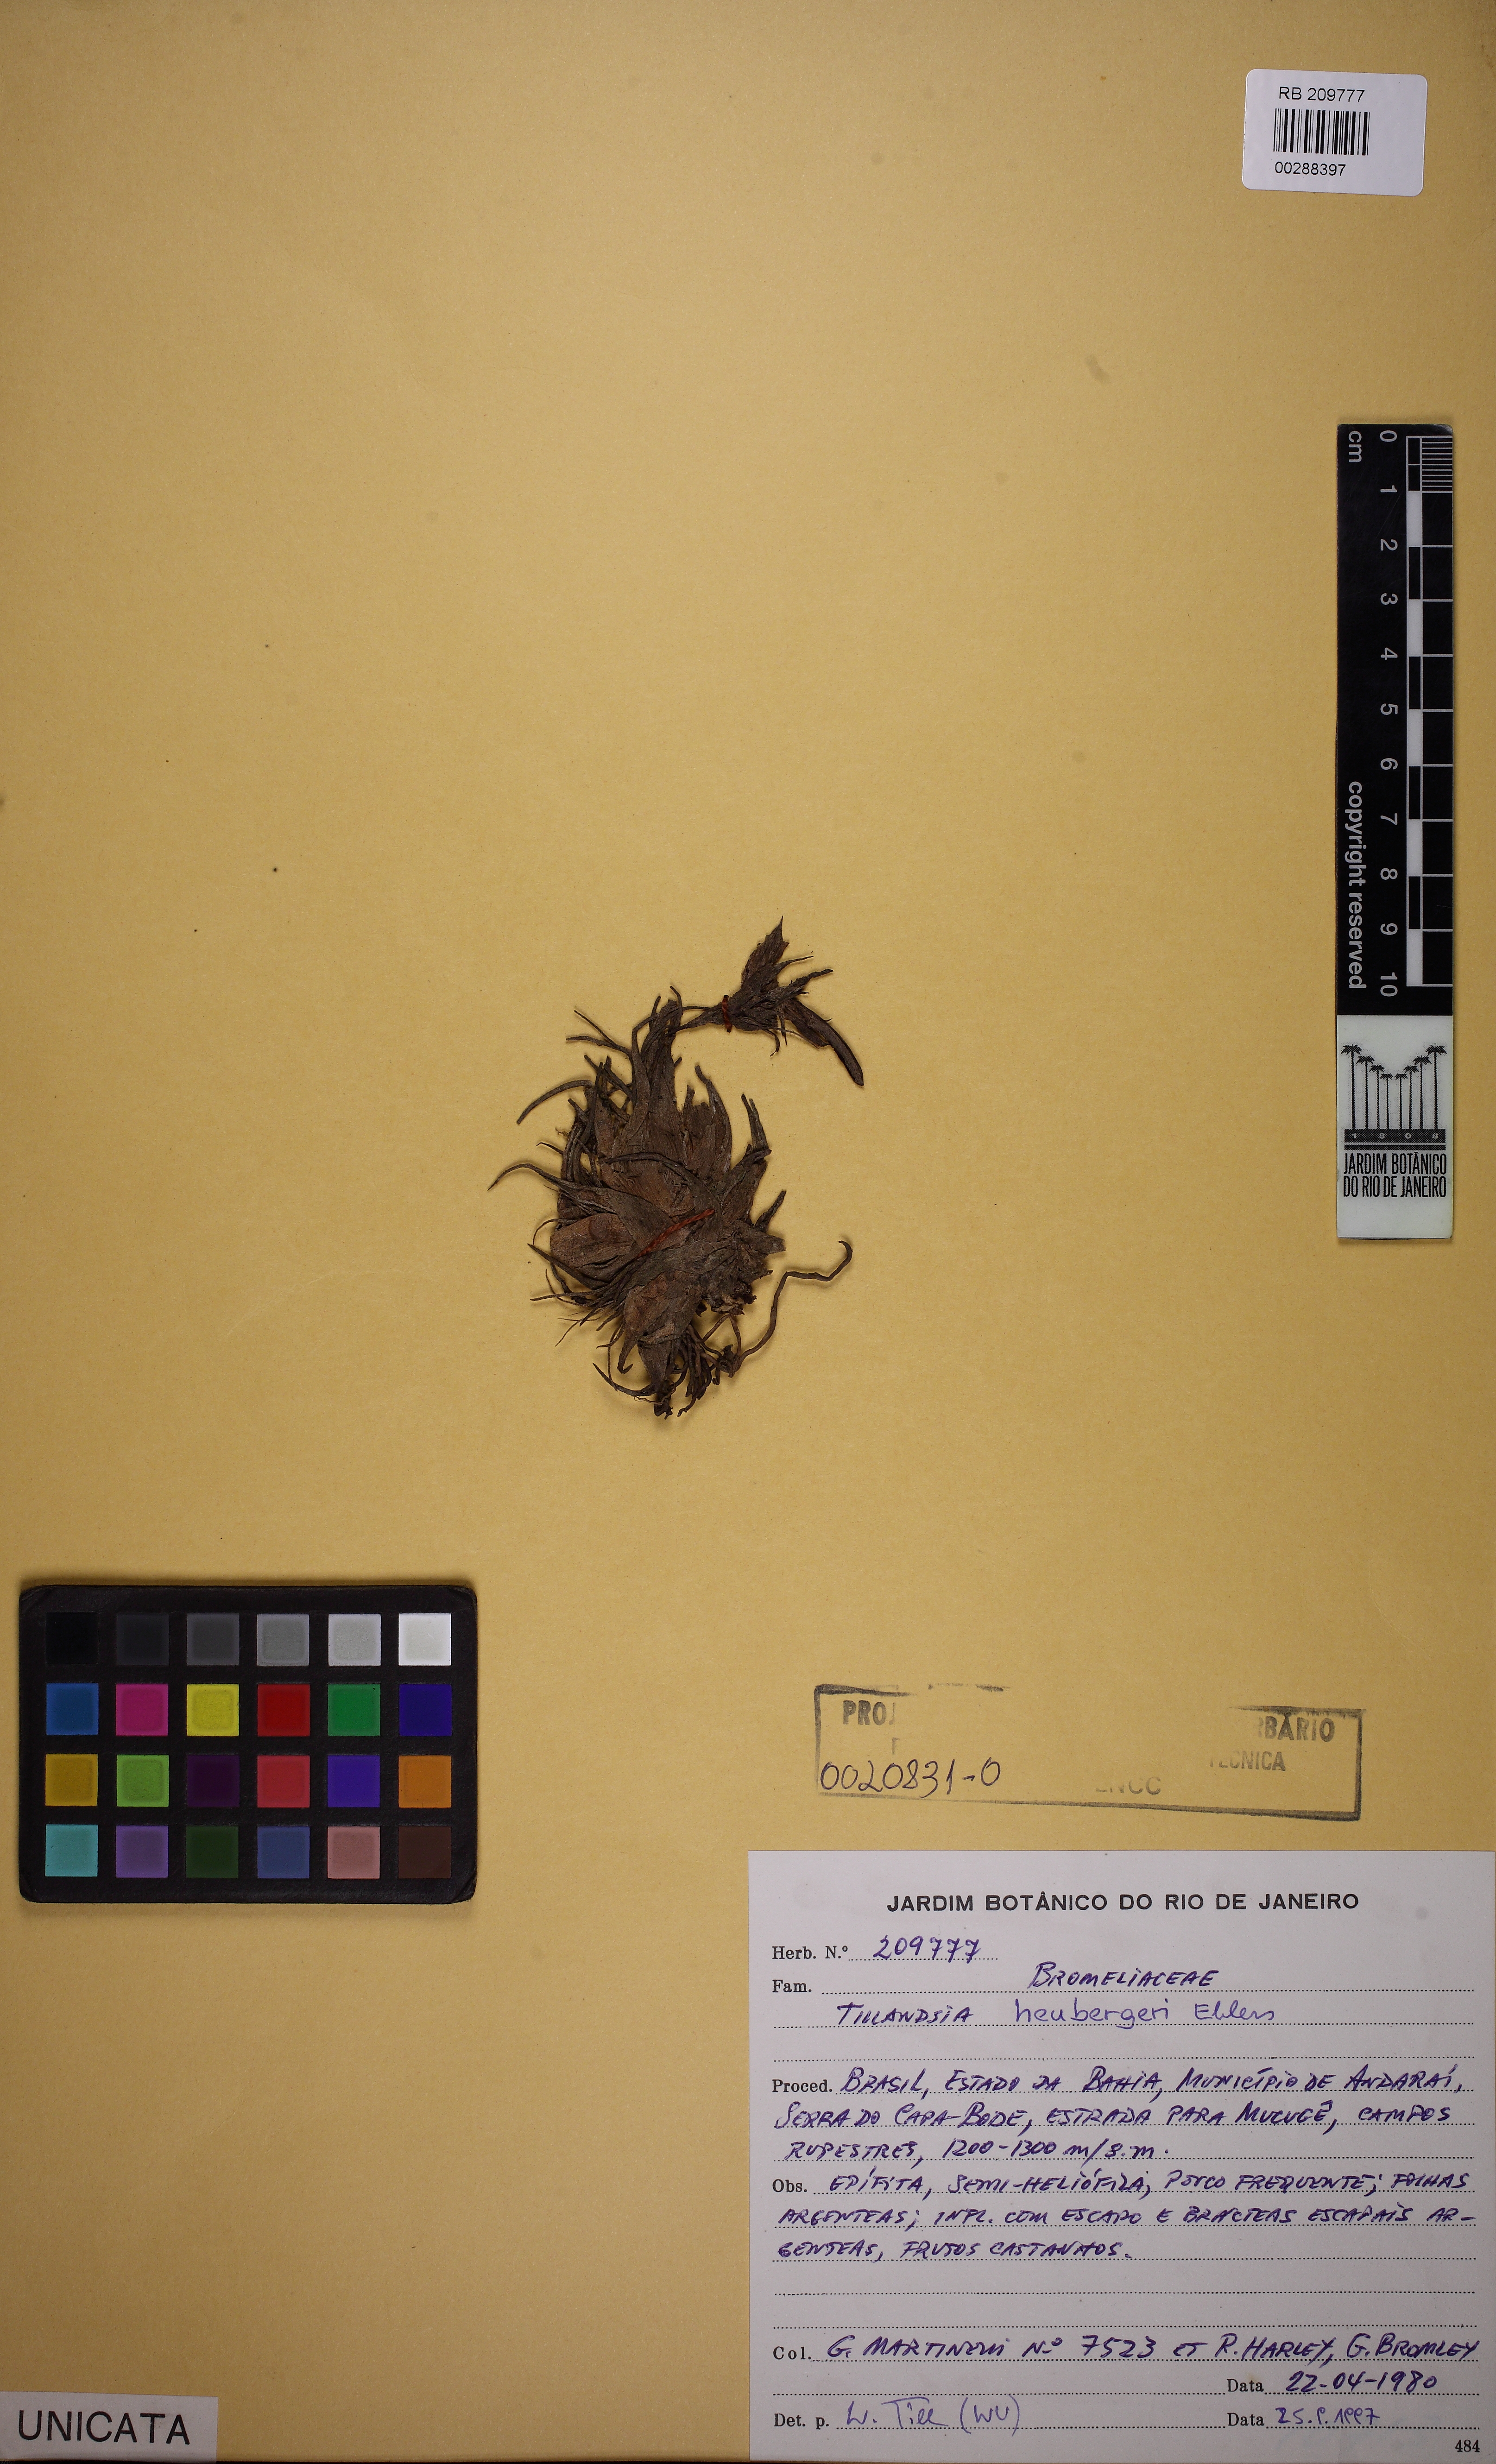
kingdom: Plantae
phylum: Tracheophyta
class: Liliopsida
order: Poales
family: Bromeliaceae
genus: Tillandsia
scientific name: Tillandsia heubergeri
